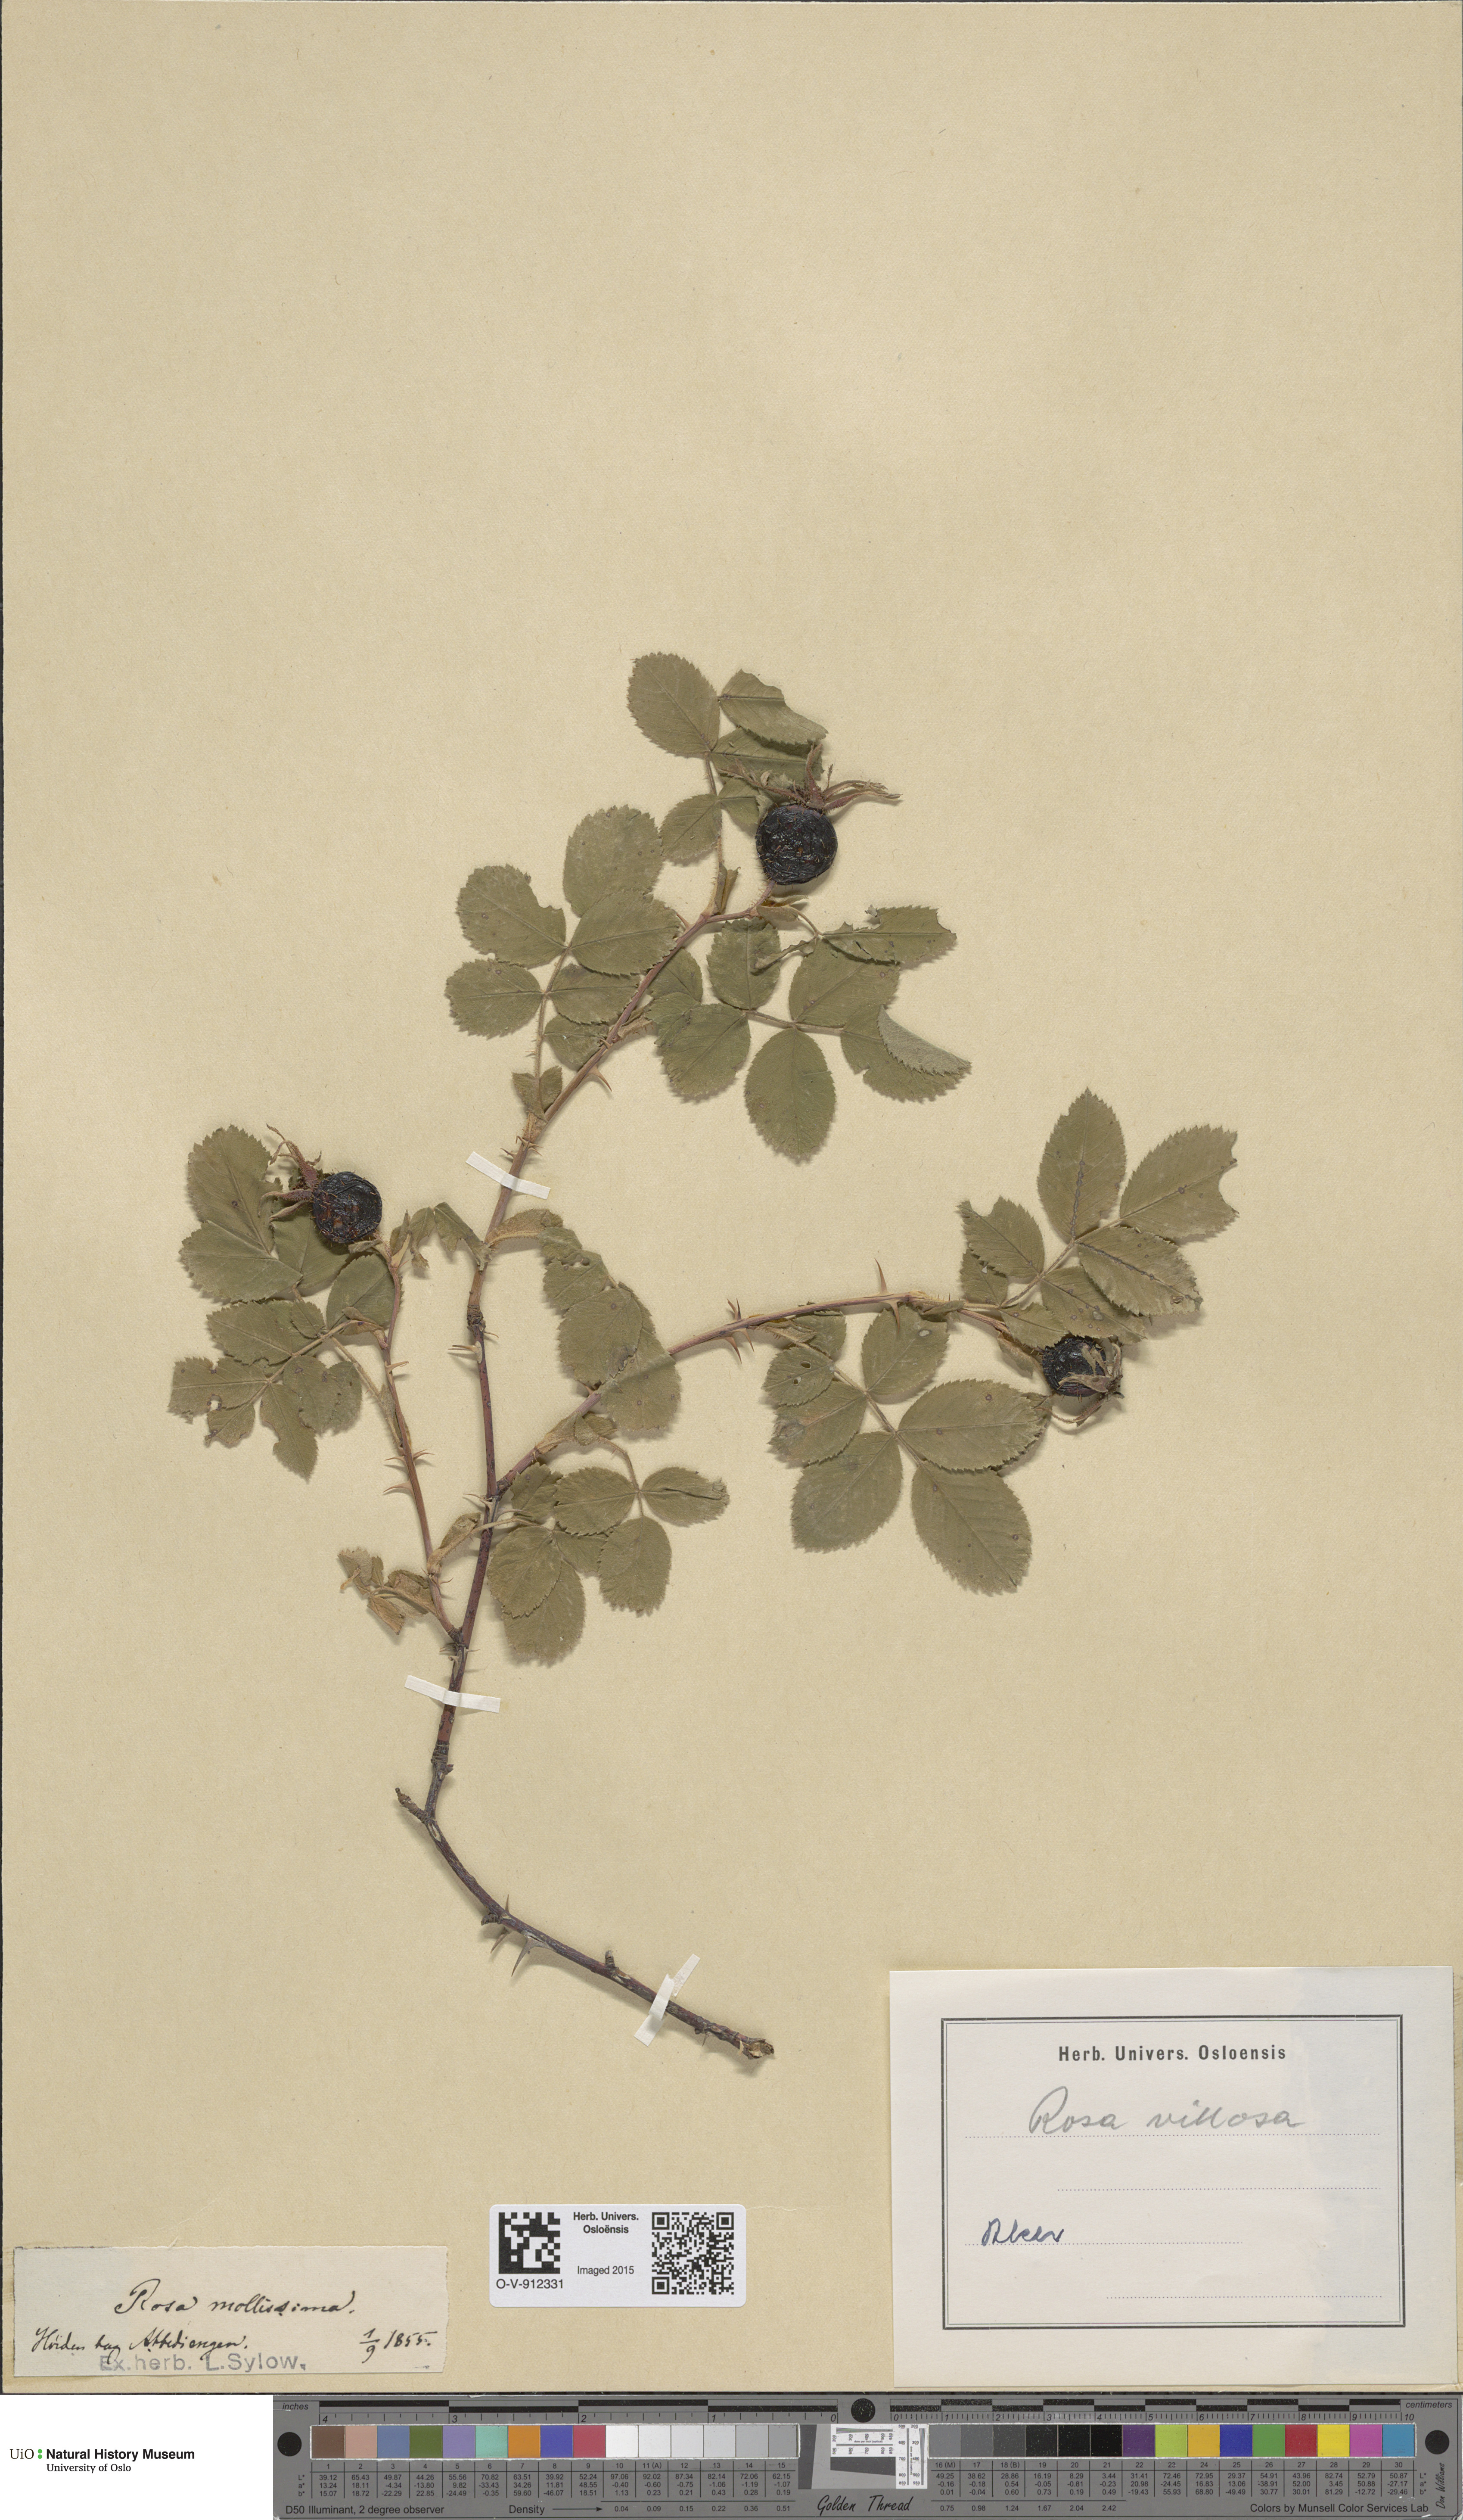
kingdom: Plantae
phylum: Tracheophyta
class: Magnoliopsida
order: Rosales
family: Rosaceae
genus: Rosa
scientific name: Rosa villosa
